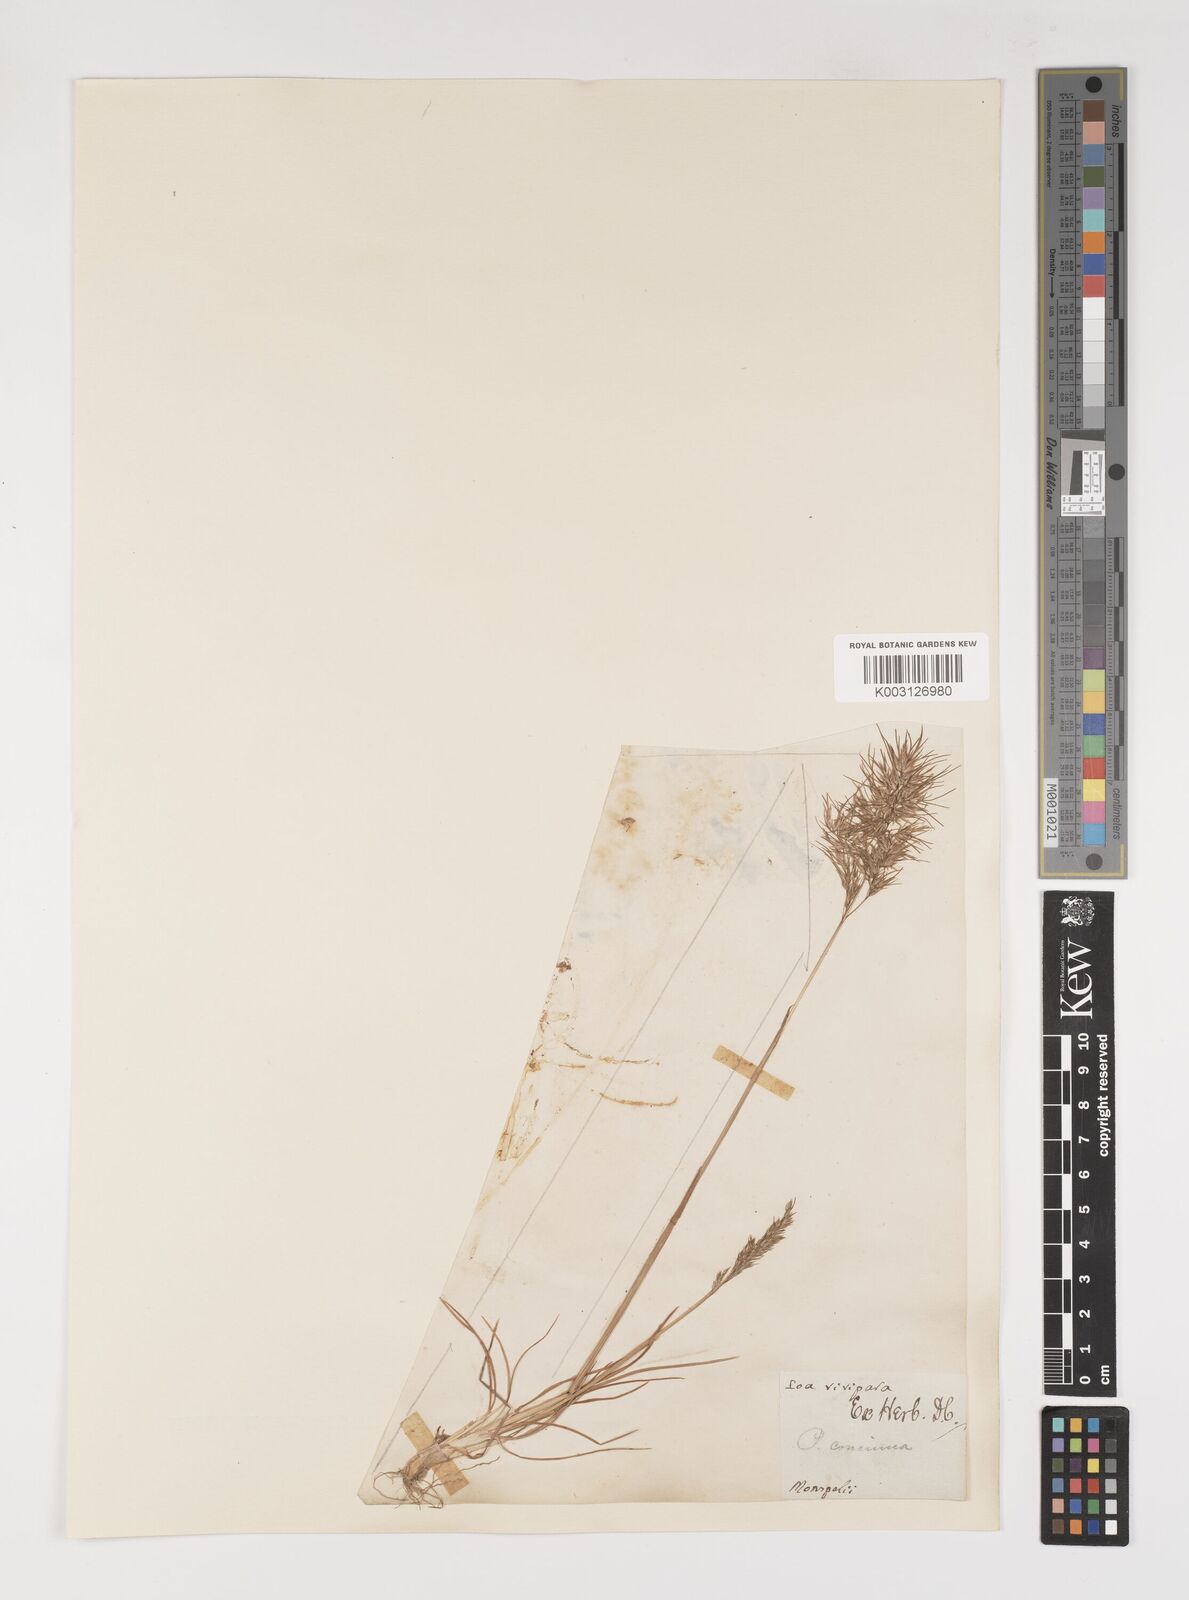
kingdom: Plantae
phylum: Tracheophyta
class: Liliopsida
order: Poales
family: Poaceae
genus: Poa
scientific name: Poa perconcinna
